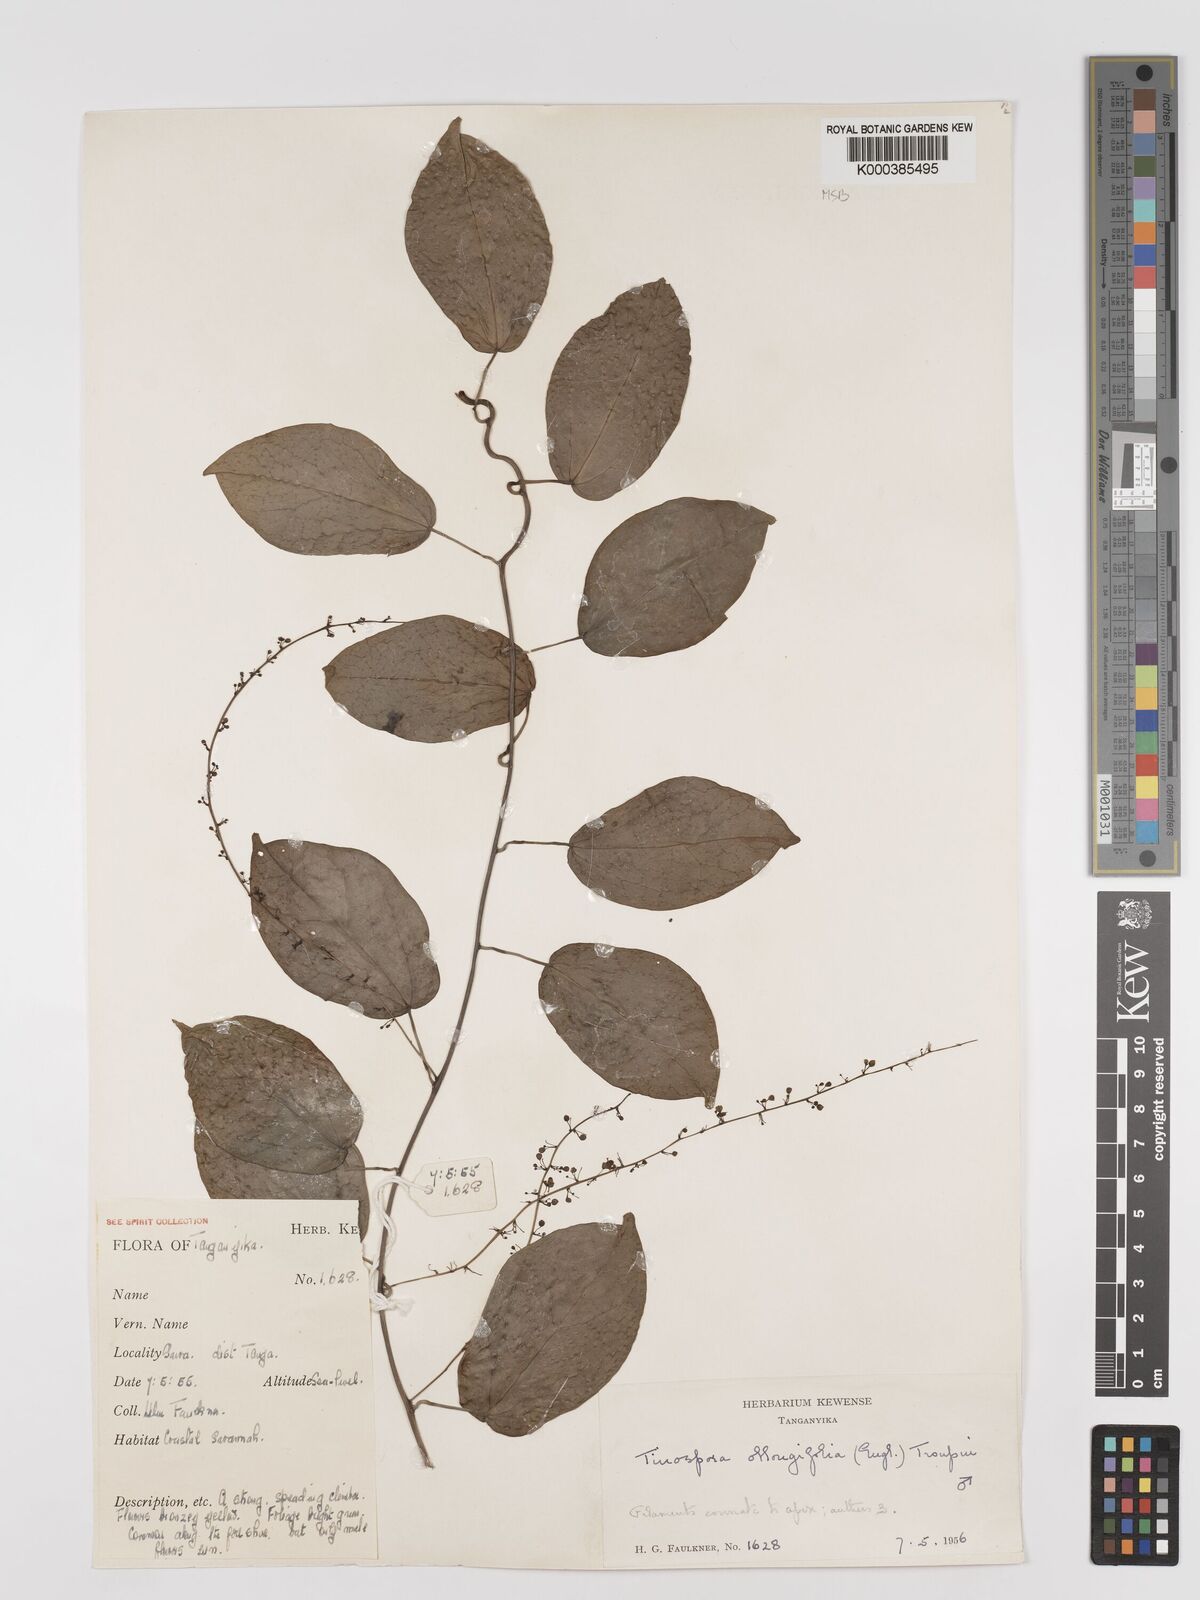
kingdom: Plantae
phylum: Tracheophyta
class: Magnoliopsida
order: Ranunculales
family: Menispermaceae
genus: Tinospora
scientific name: Tinospora oblongifolia
